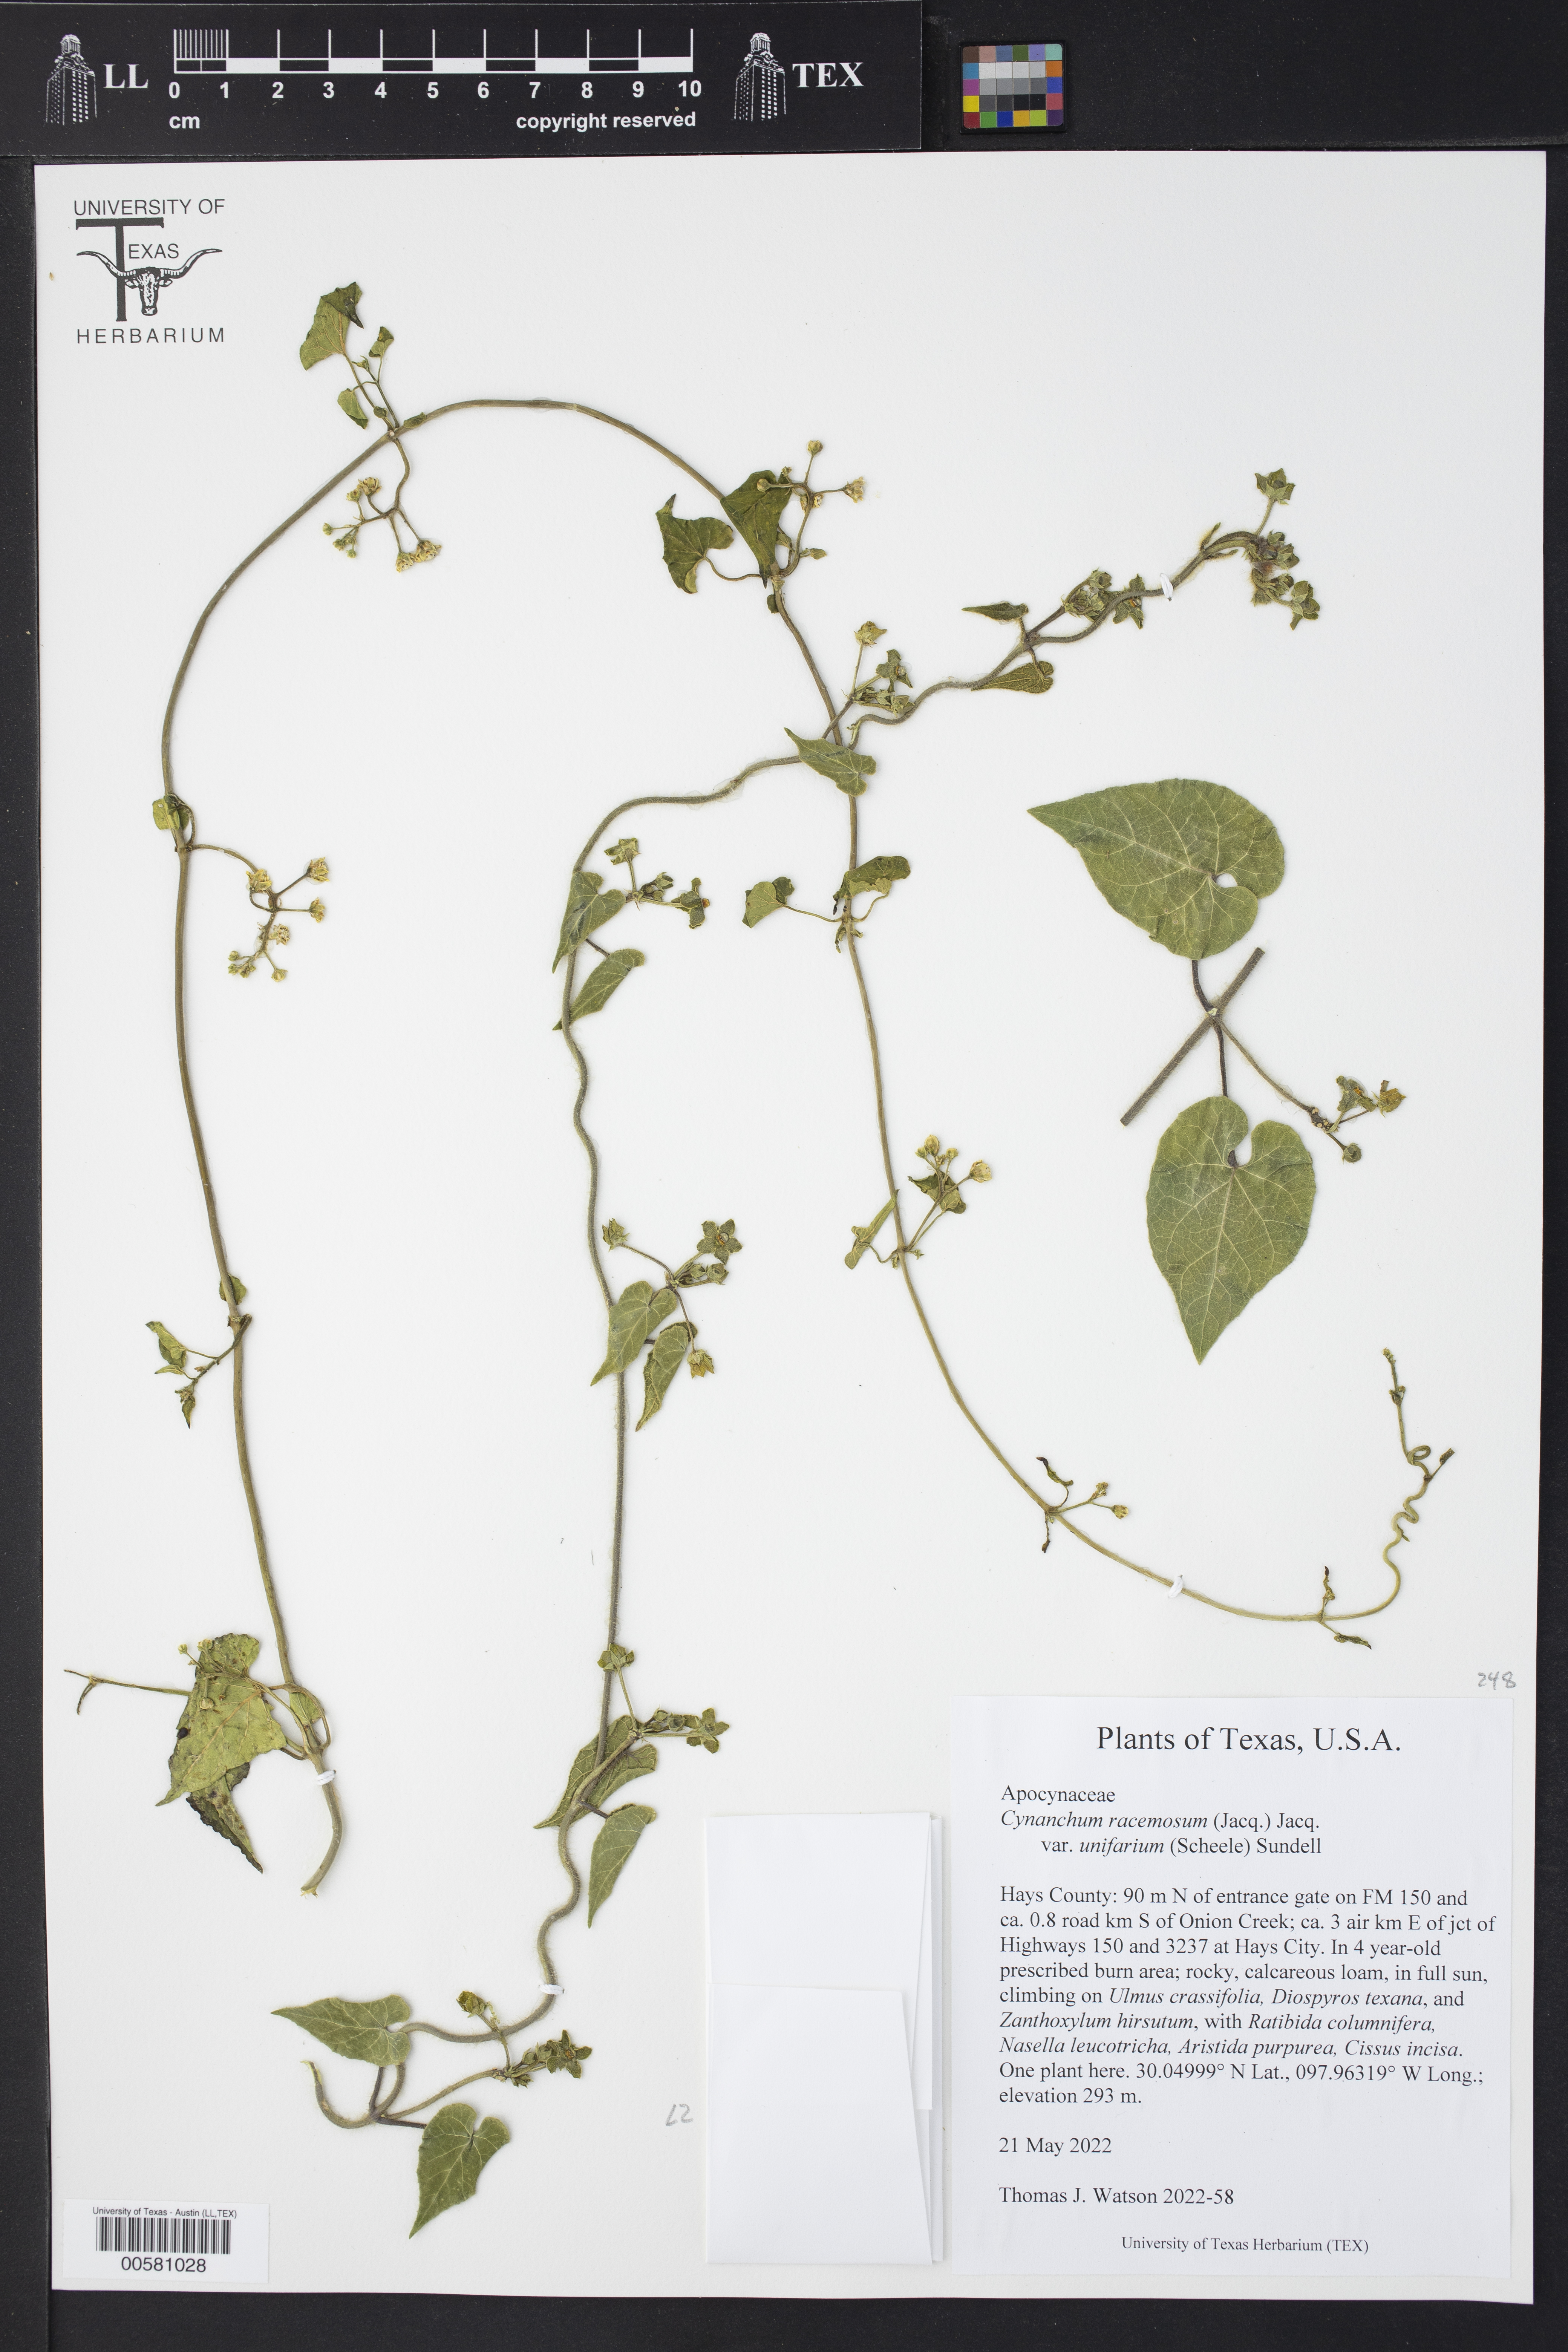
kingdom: Plantae
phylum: Tracheophyta
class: Magnoliopsida
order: Gentianales
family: Apocynaceae
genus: Cynanchum
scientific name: Cynanchum racemosum
